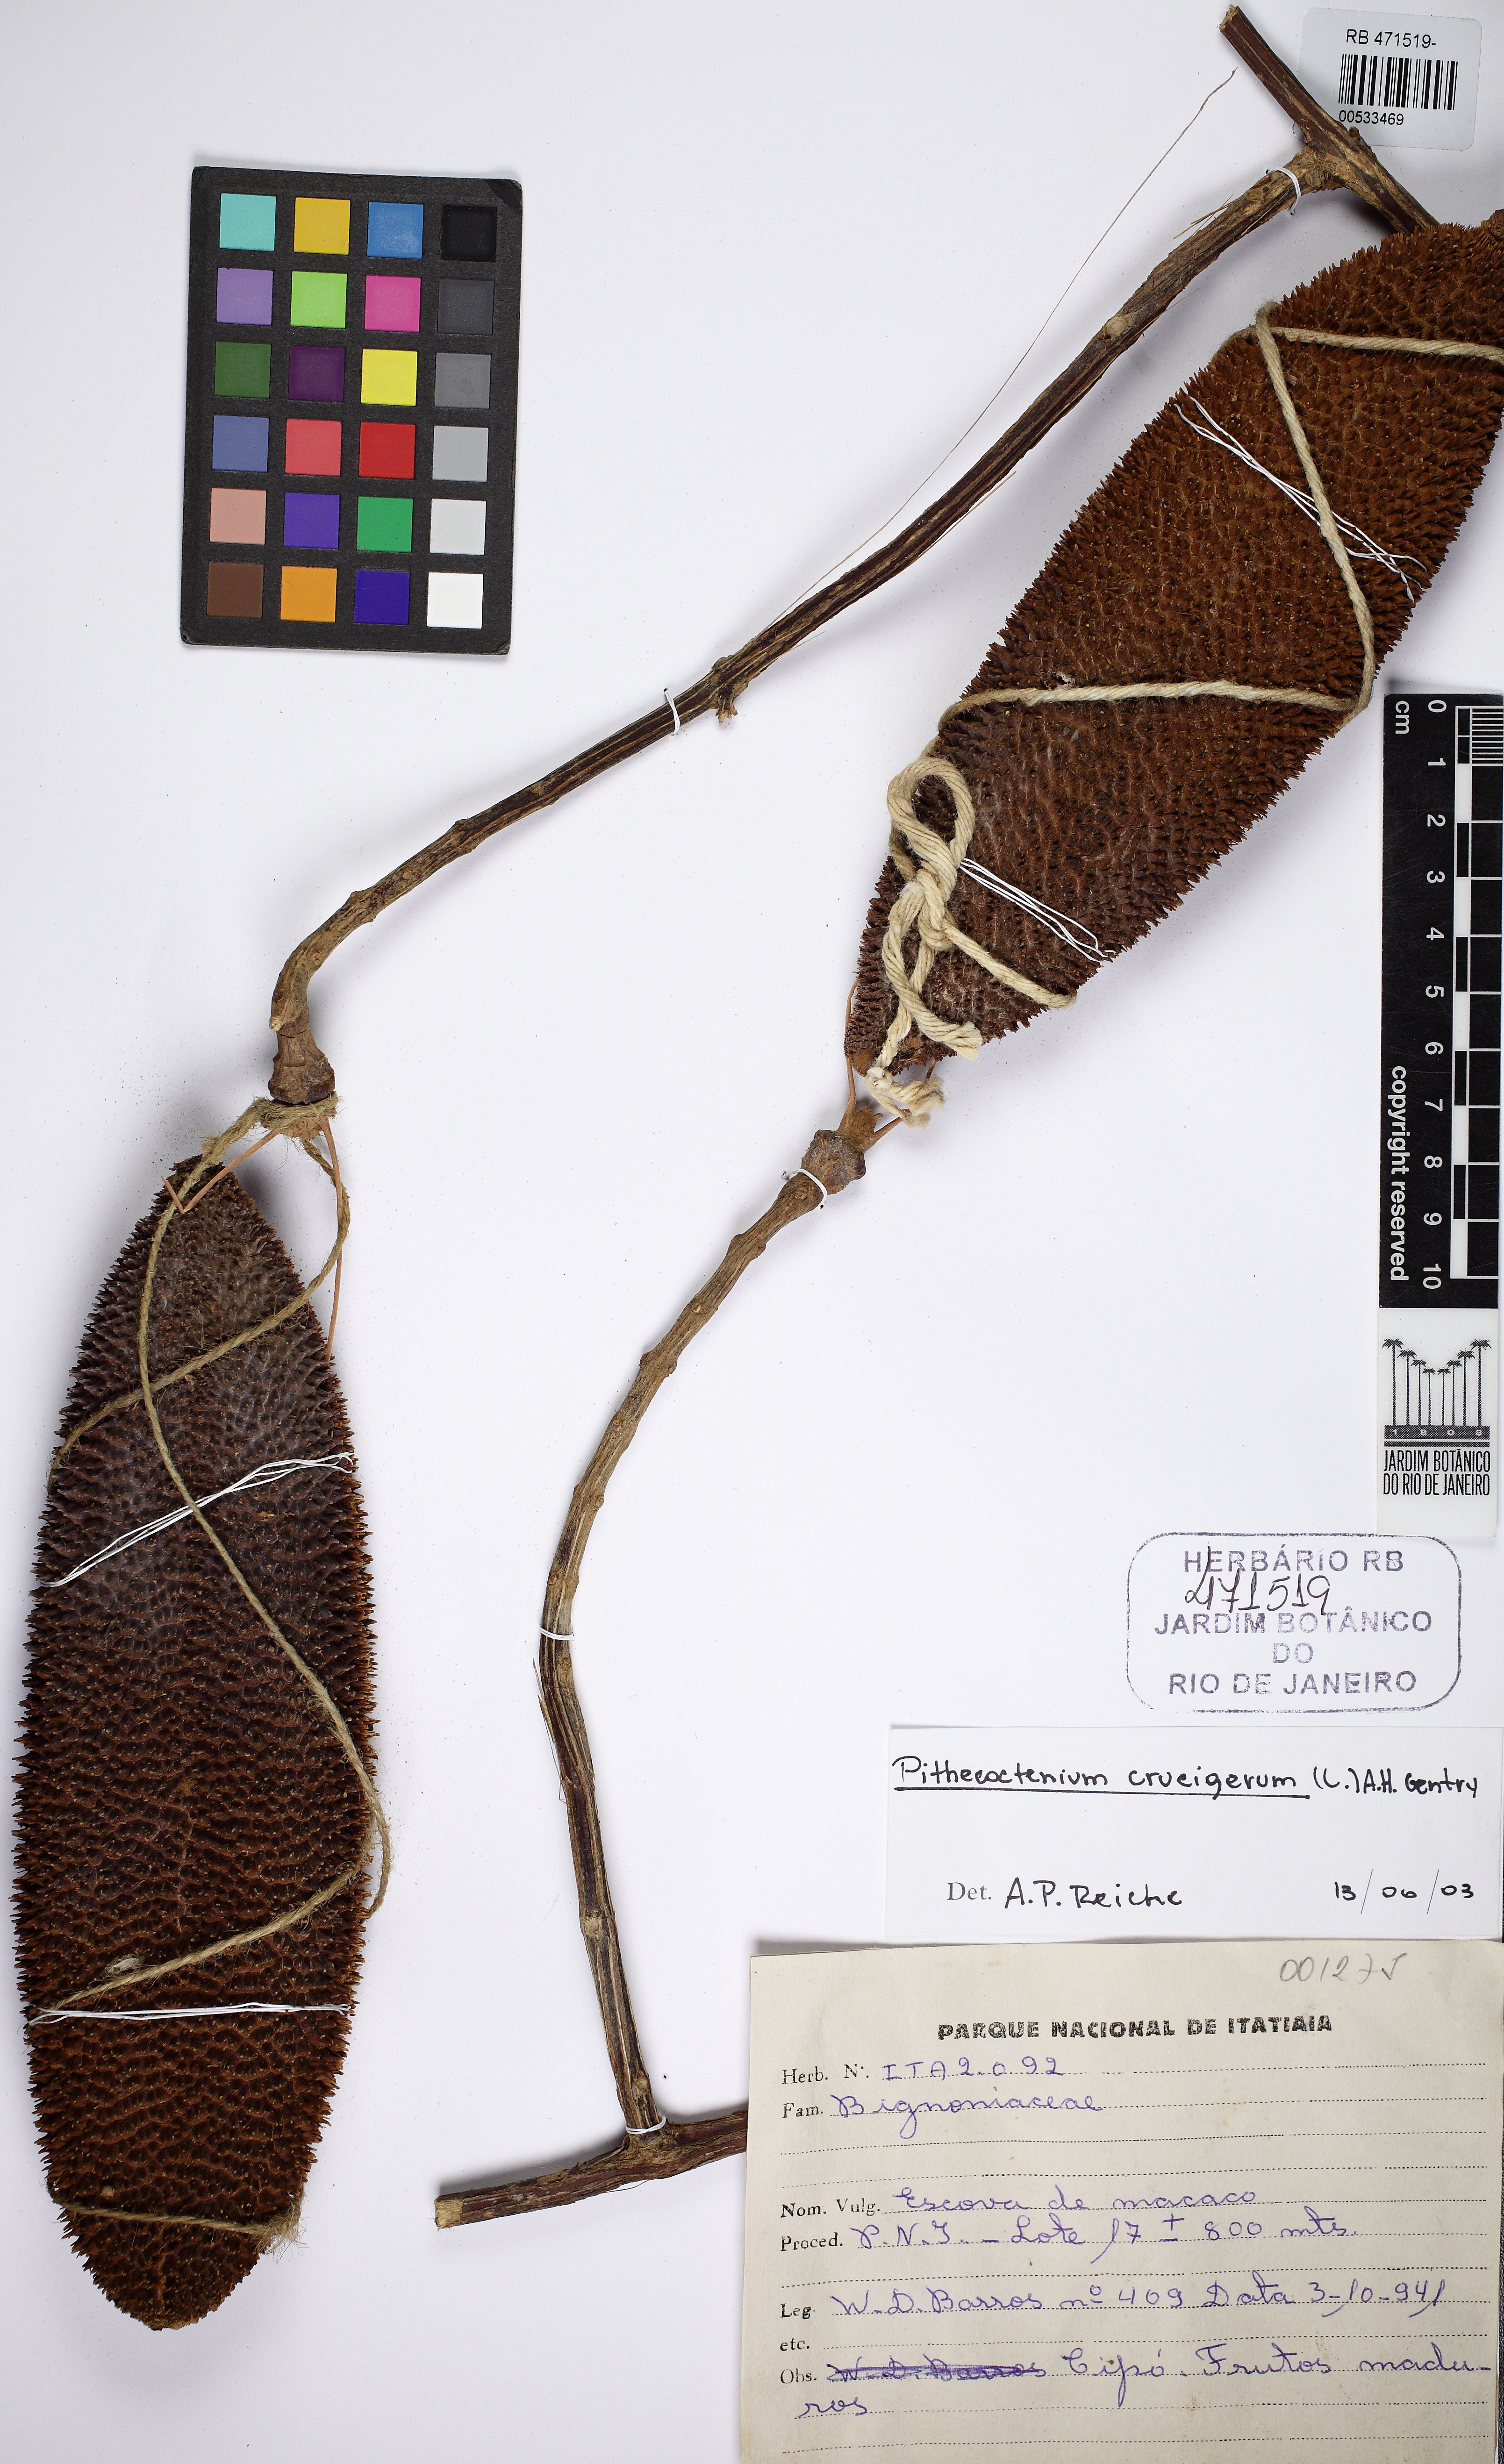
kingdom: Plantae
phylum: Tracheophyta
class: Magnoliopsida
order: Lamiales
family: Bignoniaceae
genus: Amphilophium
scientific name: Amphilophium crucigerum
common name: Monkey comb
